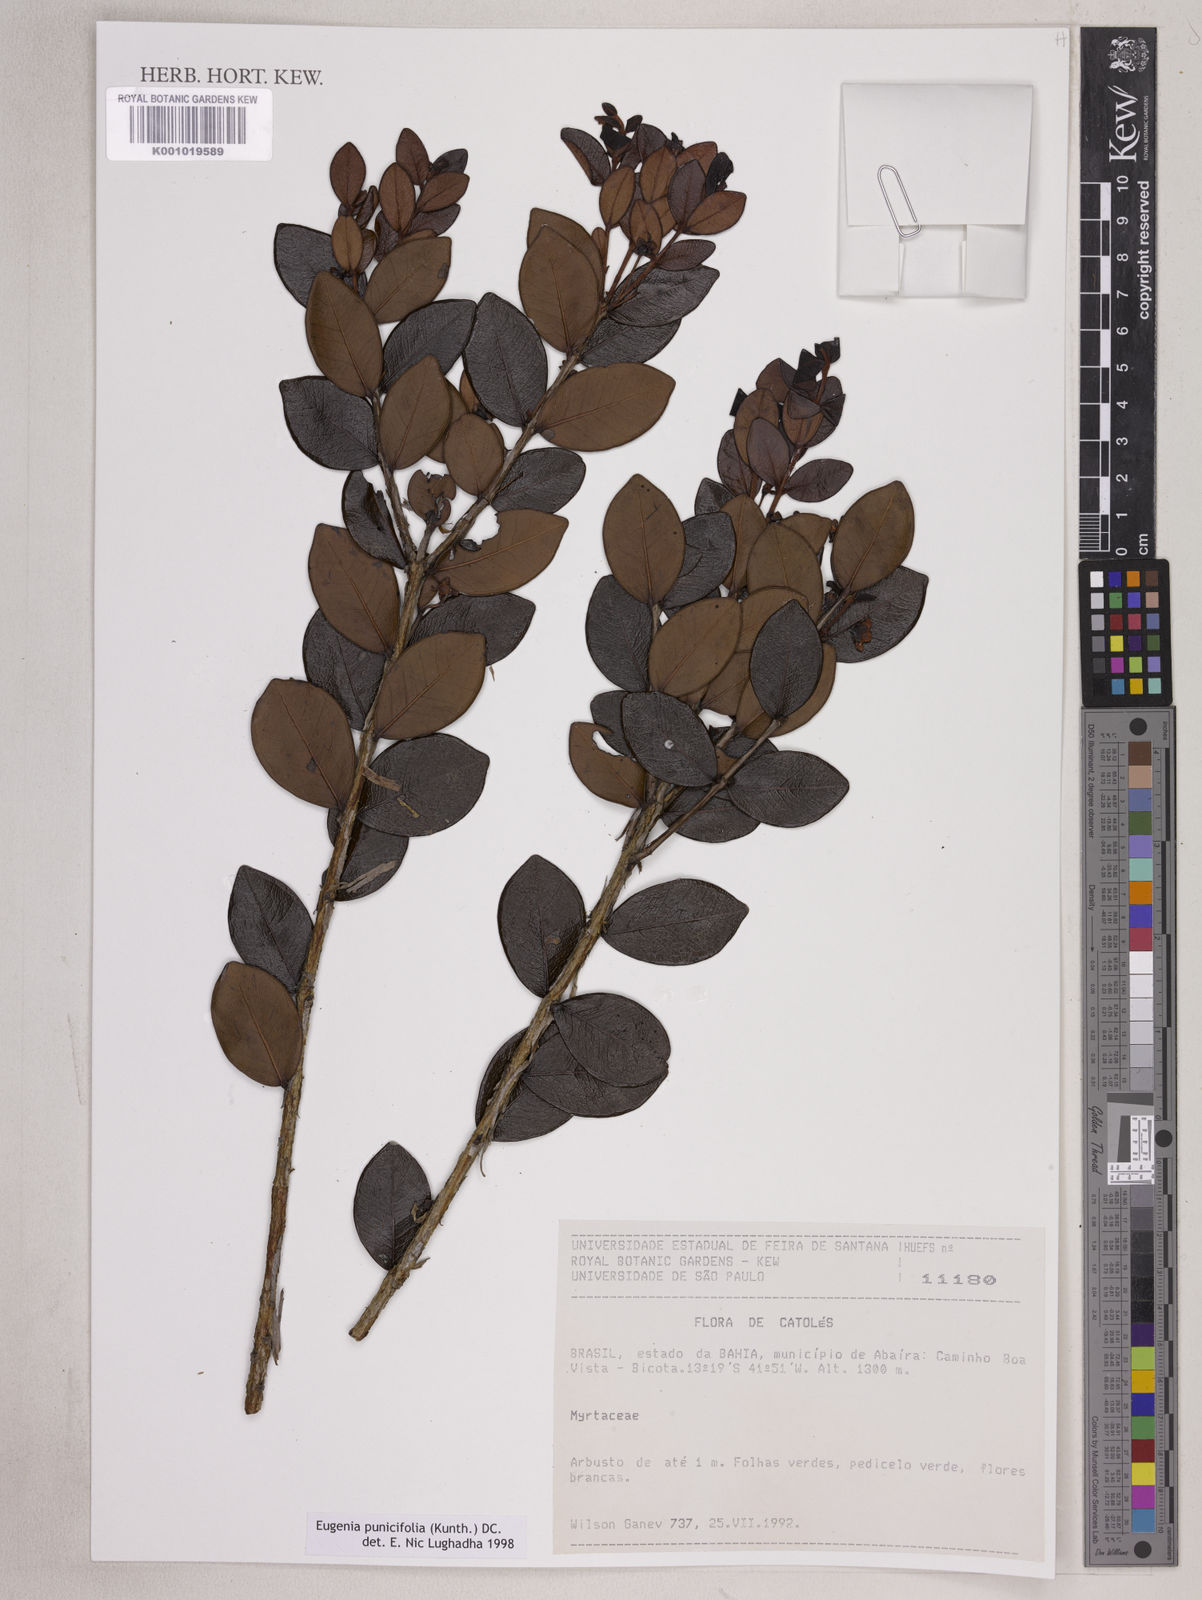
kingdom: Plantae
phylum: Tracheophyta
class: Magnoliopsida
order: Myrtales
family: Myrtaceae
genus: Eugenia
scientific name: Eugenia punicifolia
